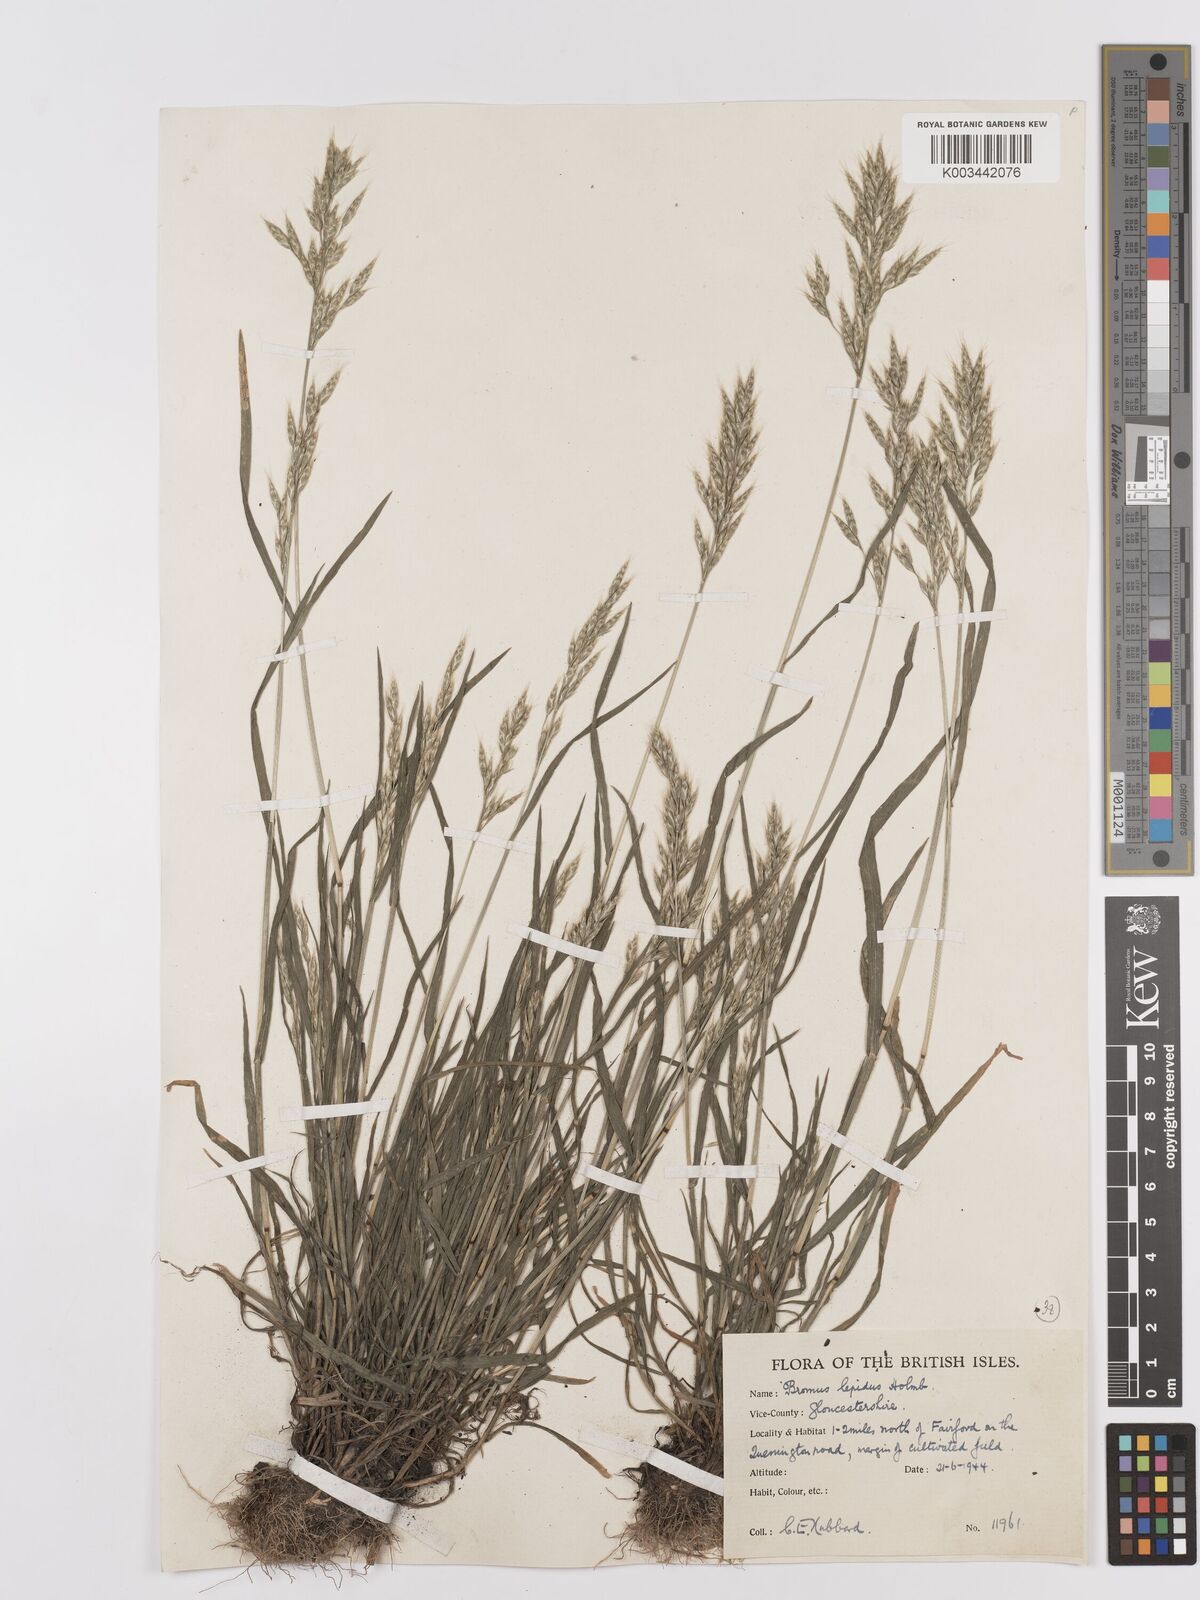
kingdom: Plantae
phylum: Tracheophyta
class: Liliopsida
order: Poales
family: Poaceae
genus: Bromus
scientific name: Bromus lepidus
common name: Slender soft-brome
